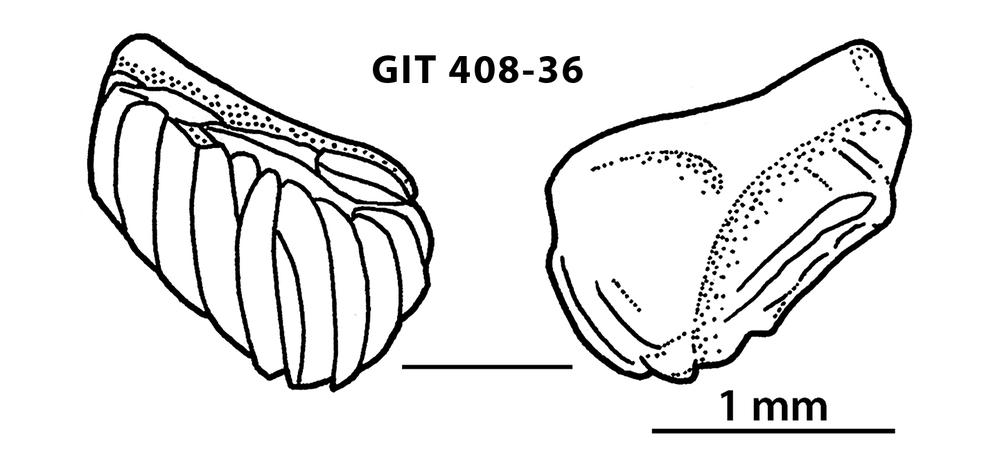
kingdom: Animalia
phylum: Chordata
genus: Archegonaspis
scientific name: Archegonaspis
